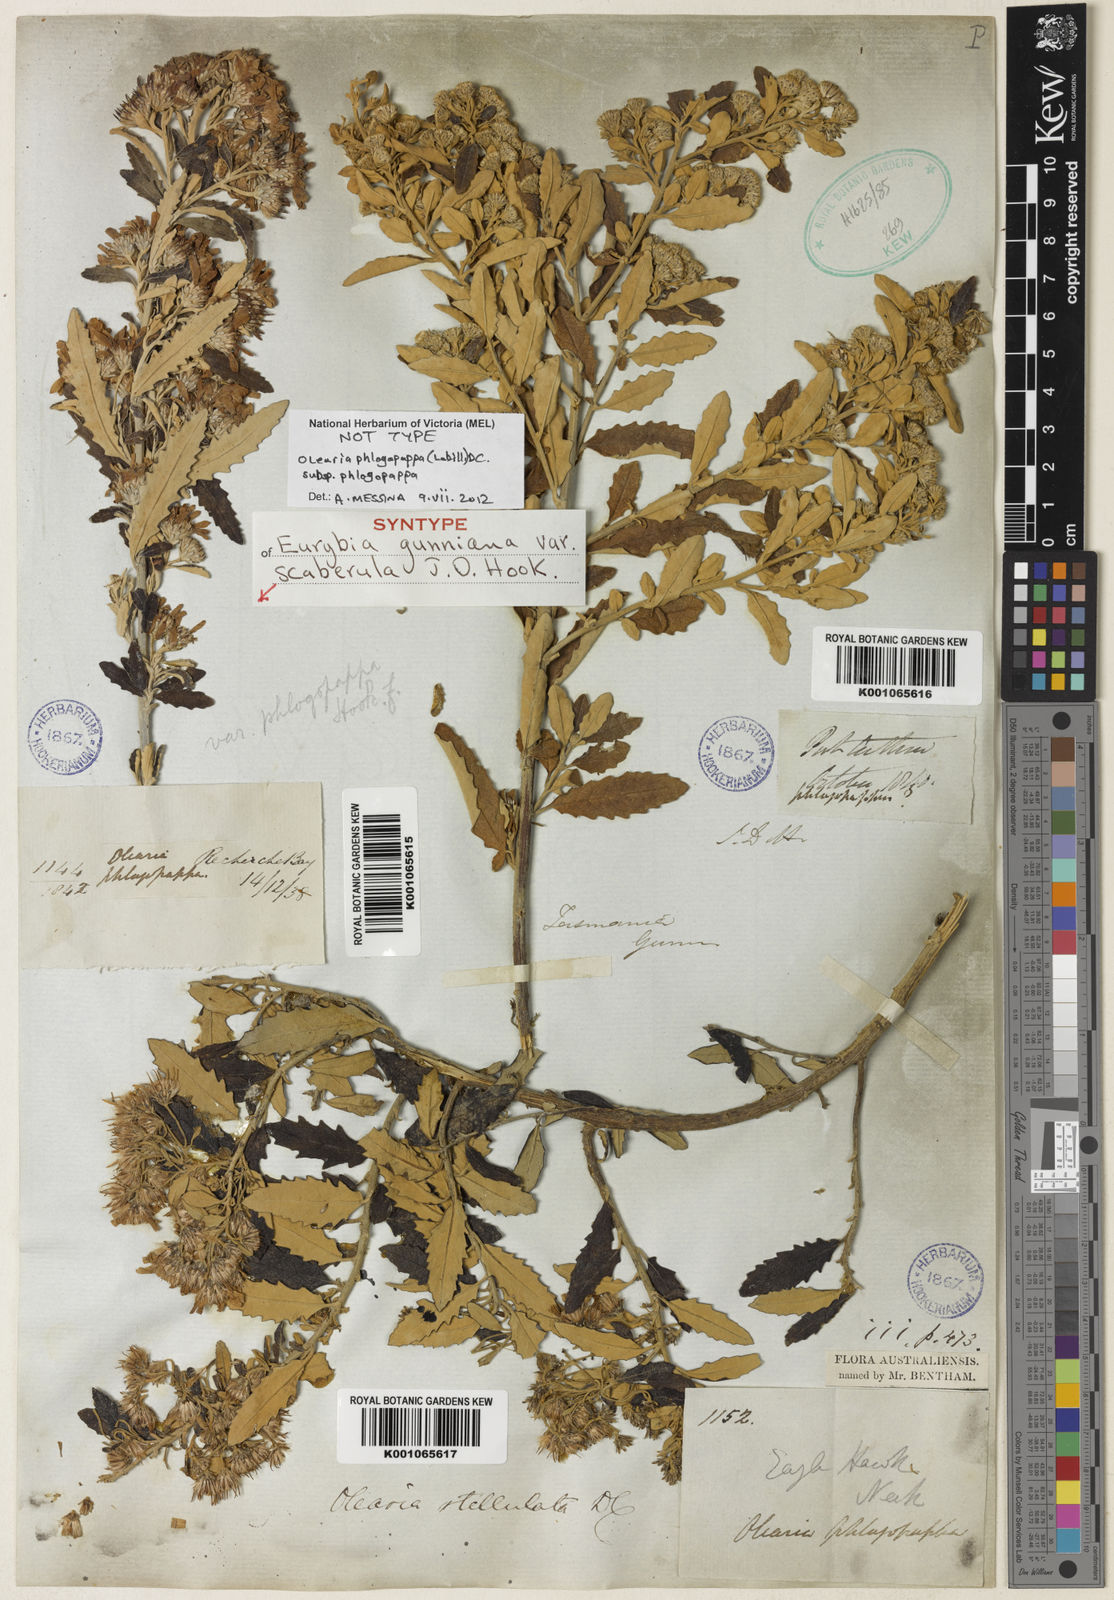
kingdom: Plantae
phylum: Tracheophyta
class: Magnoliopsida
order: Asterales
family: Asteraceae
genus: Olearia
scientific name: Olearia phlogopappa
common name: Alpine daisybush
